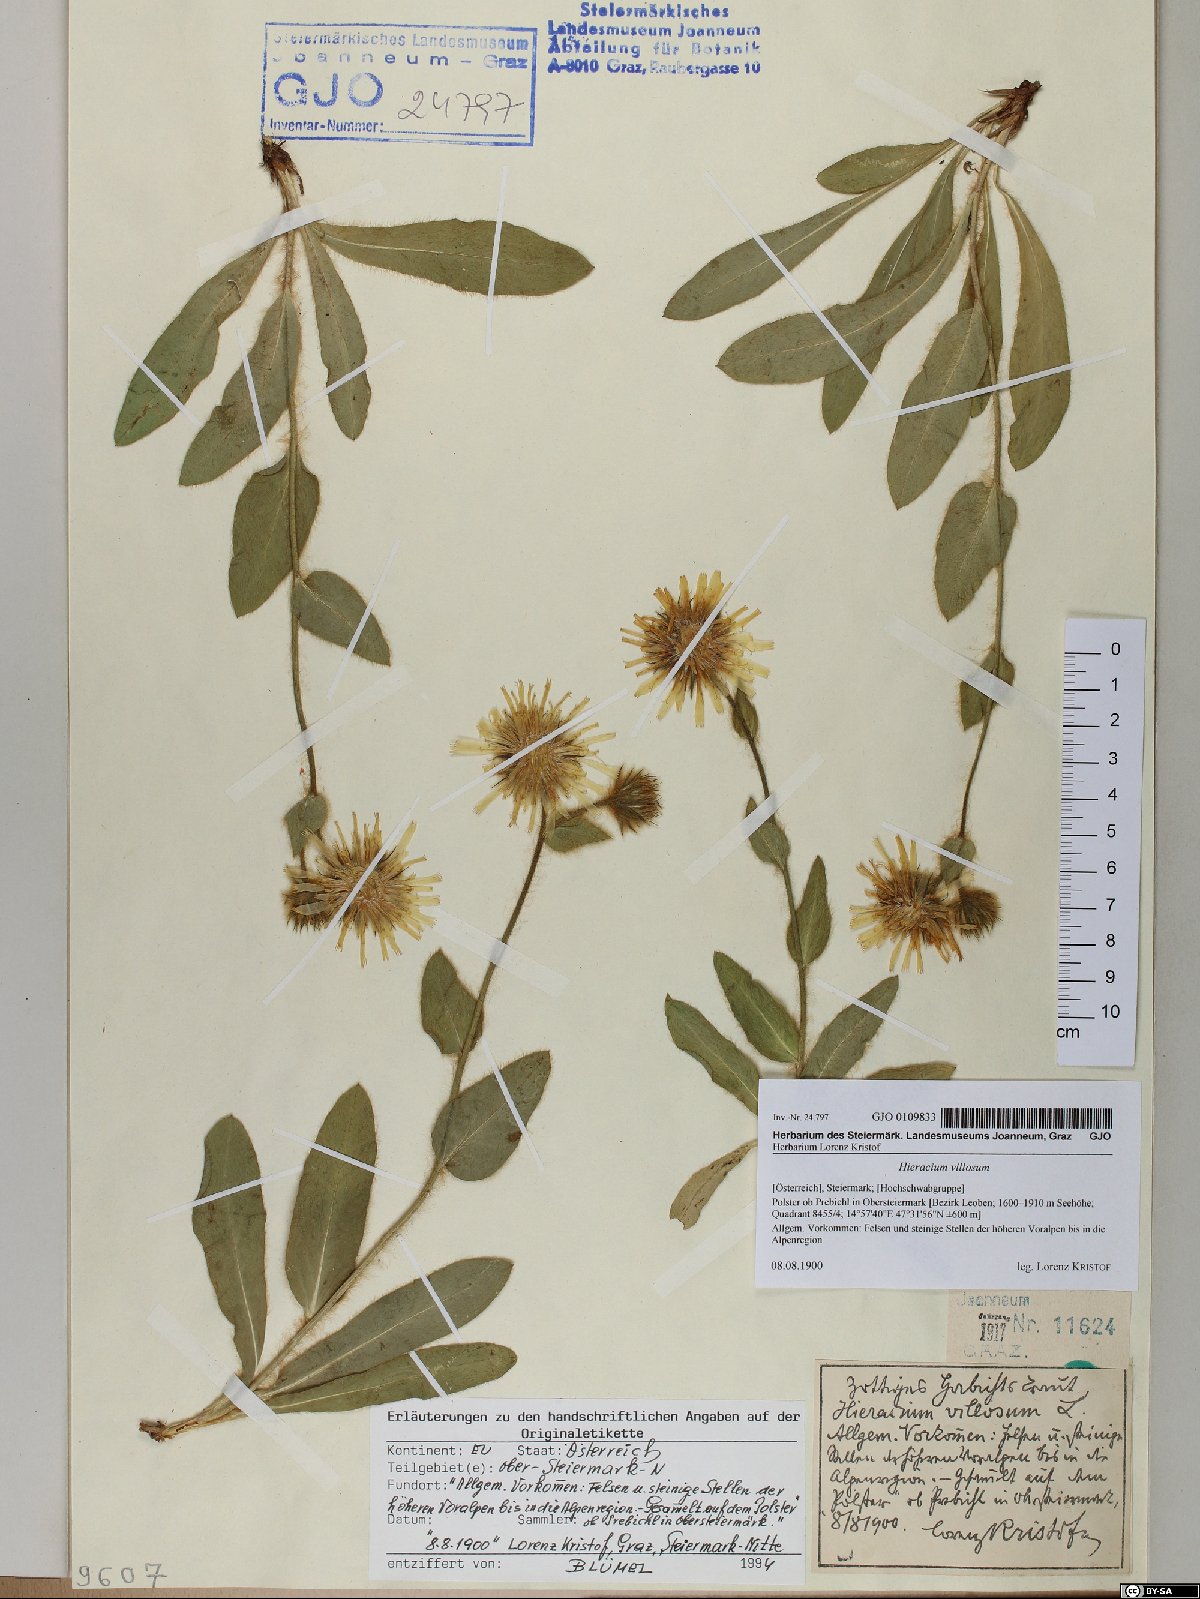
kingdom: Plantae
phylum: Tracheophyta
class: Magnoliopsida
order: Asterales
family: Asteraceae
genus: Hieracium
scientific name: Hieracium villosum
